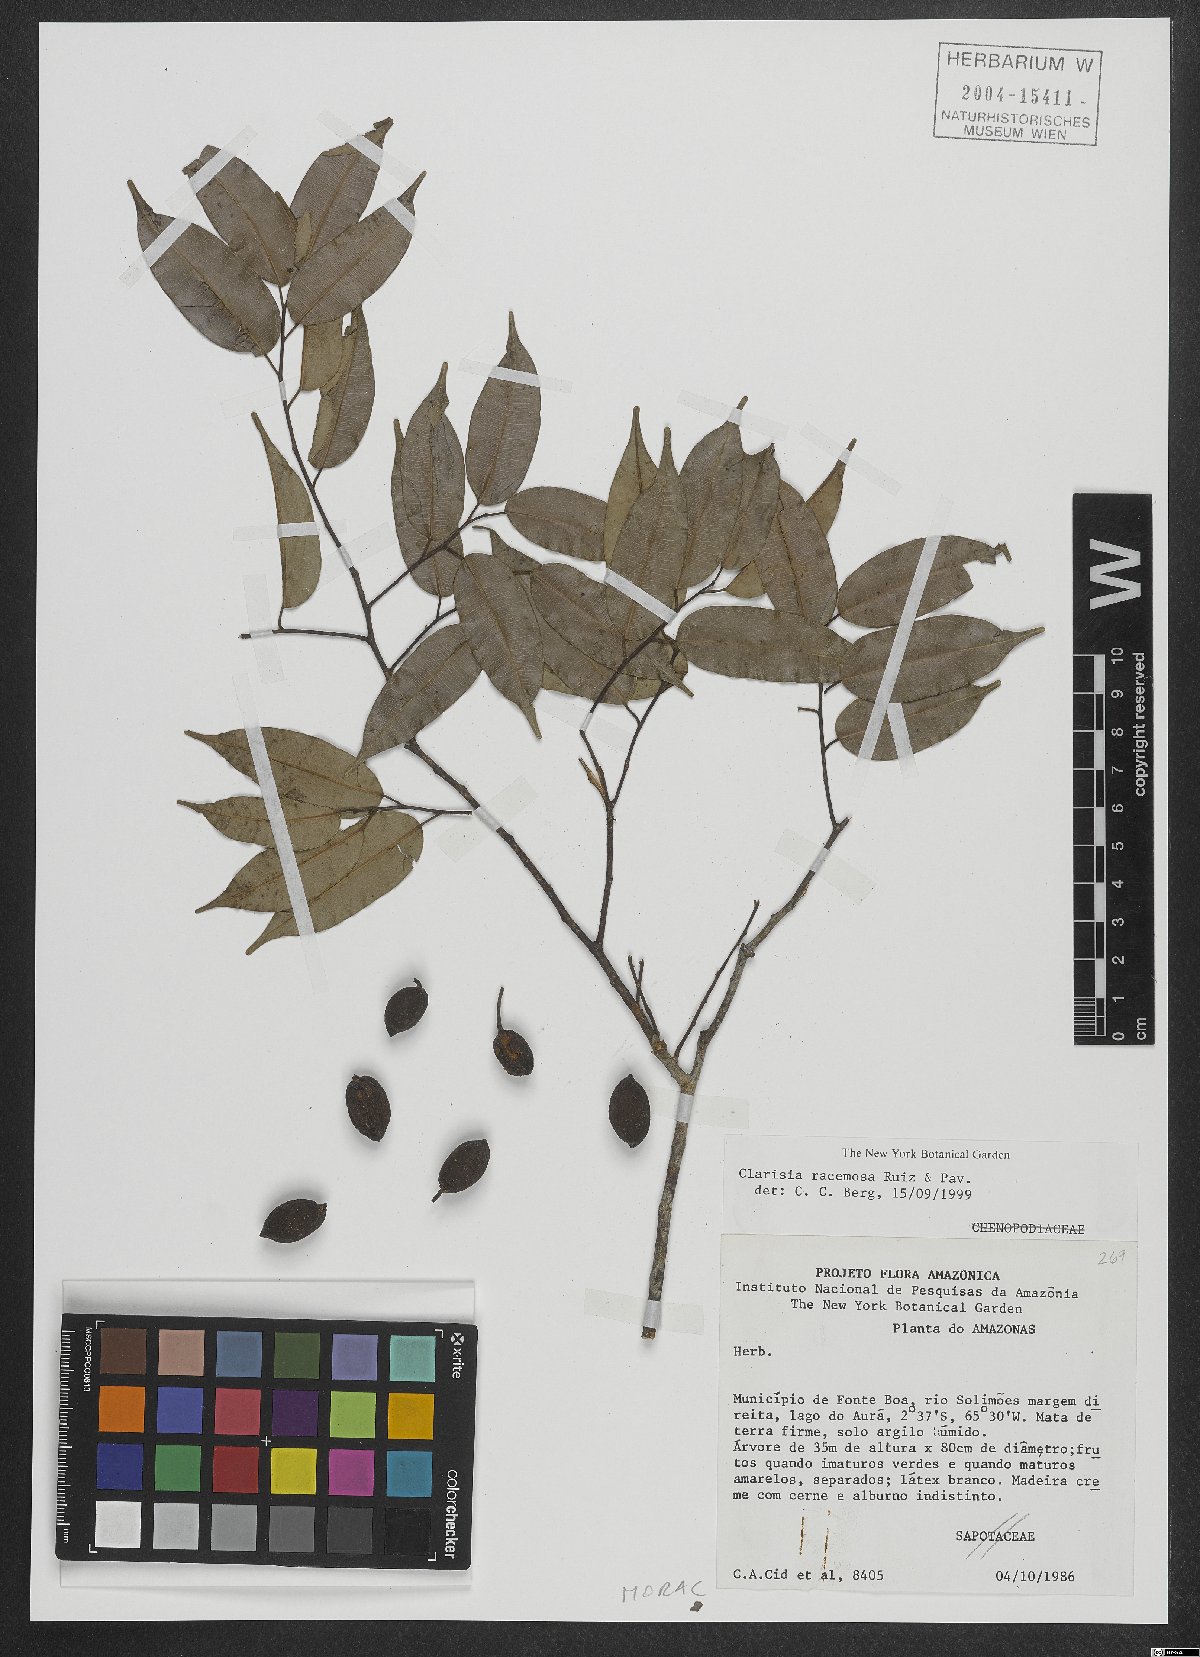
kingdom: Plantae
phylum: Tracheophyta
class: Magnoliopsida
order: Rosales
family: Moraceae
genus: Clarisia
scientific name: Clarisia racemosa
